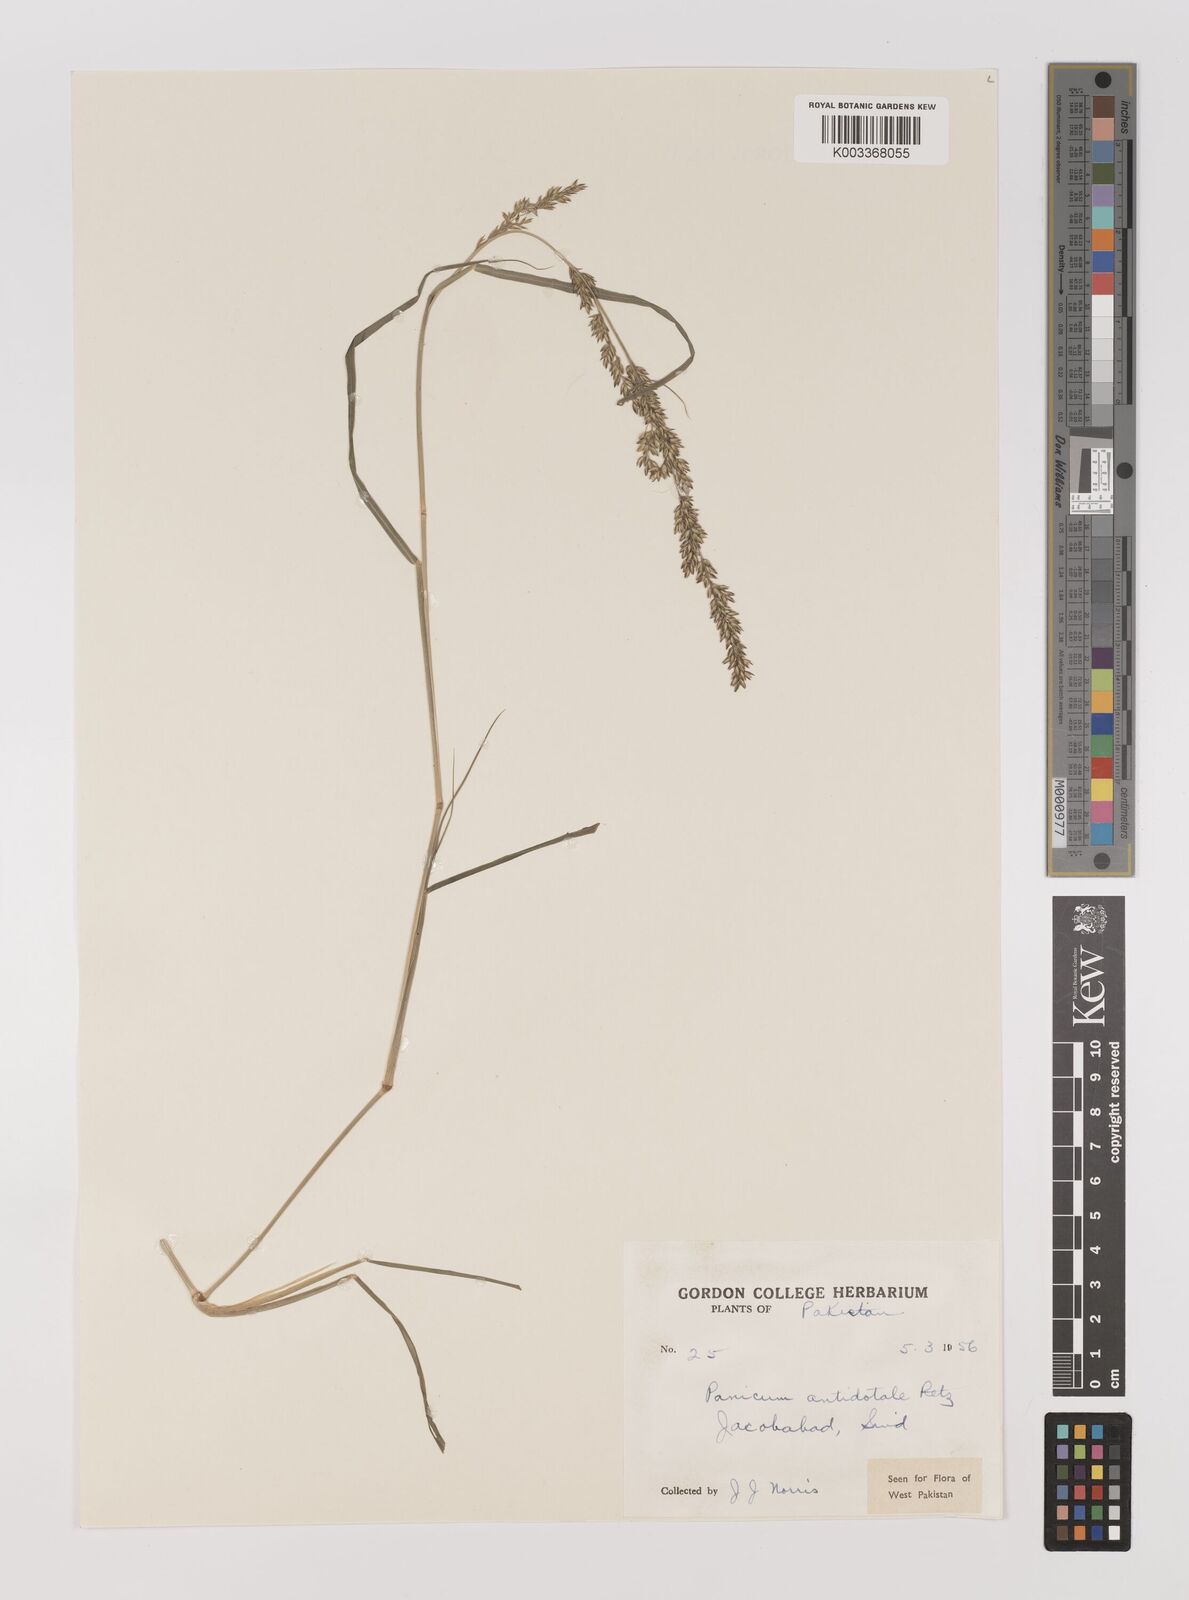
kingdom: Plantae
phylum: Tracheophyta
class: Liliopsida
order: Poales
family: Poaceae
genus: Panicum
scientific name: Panicum antidotale
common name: Blue panicum
